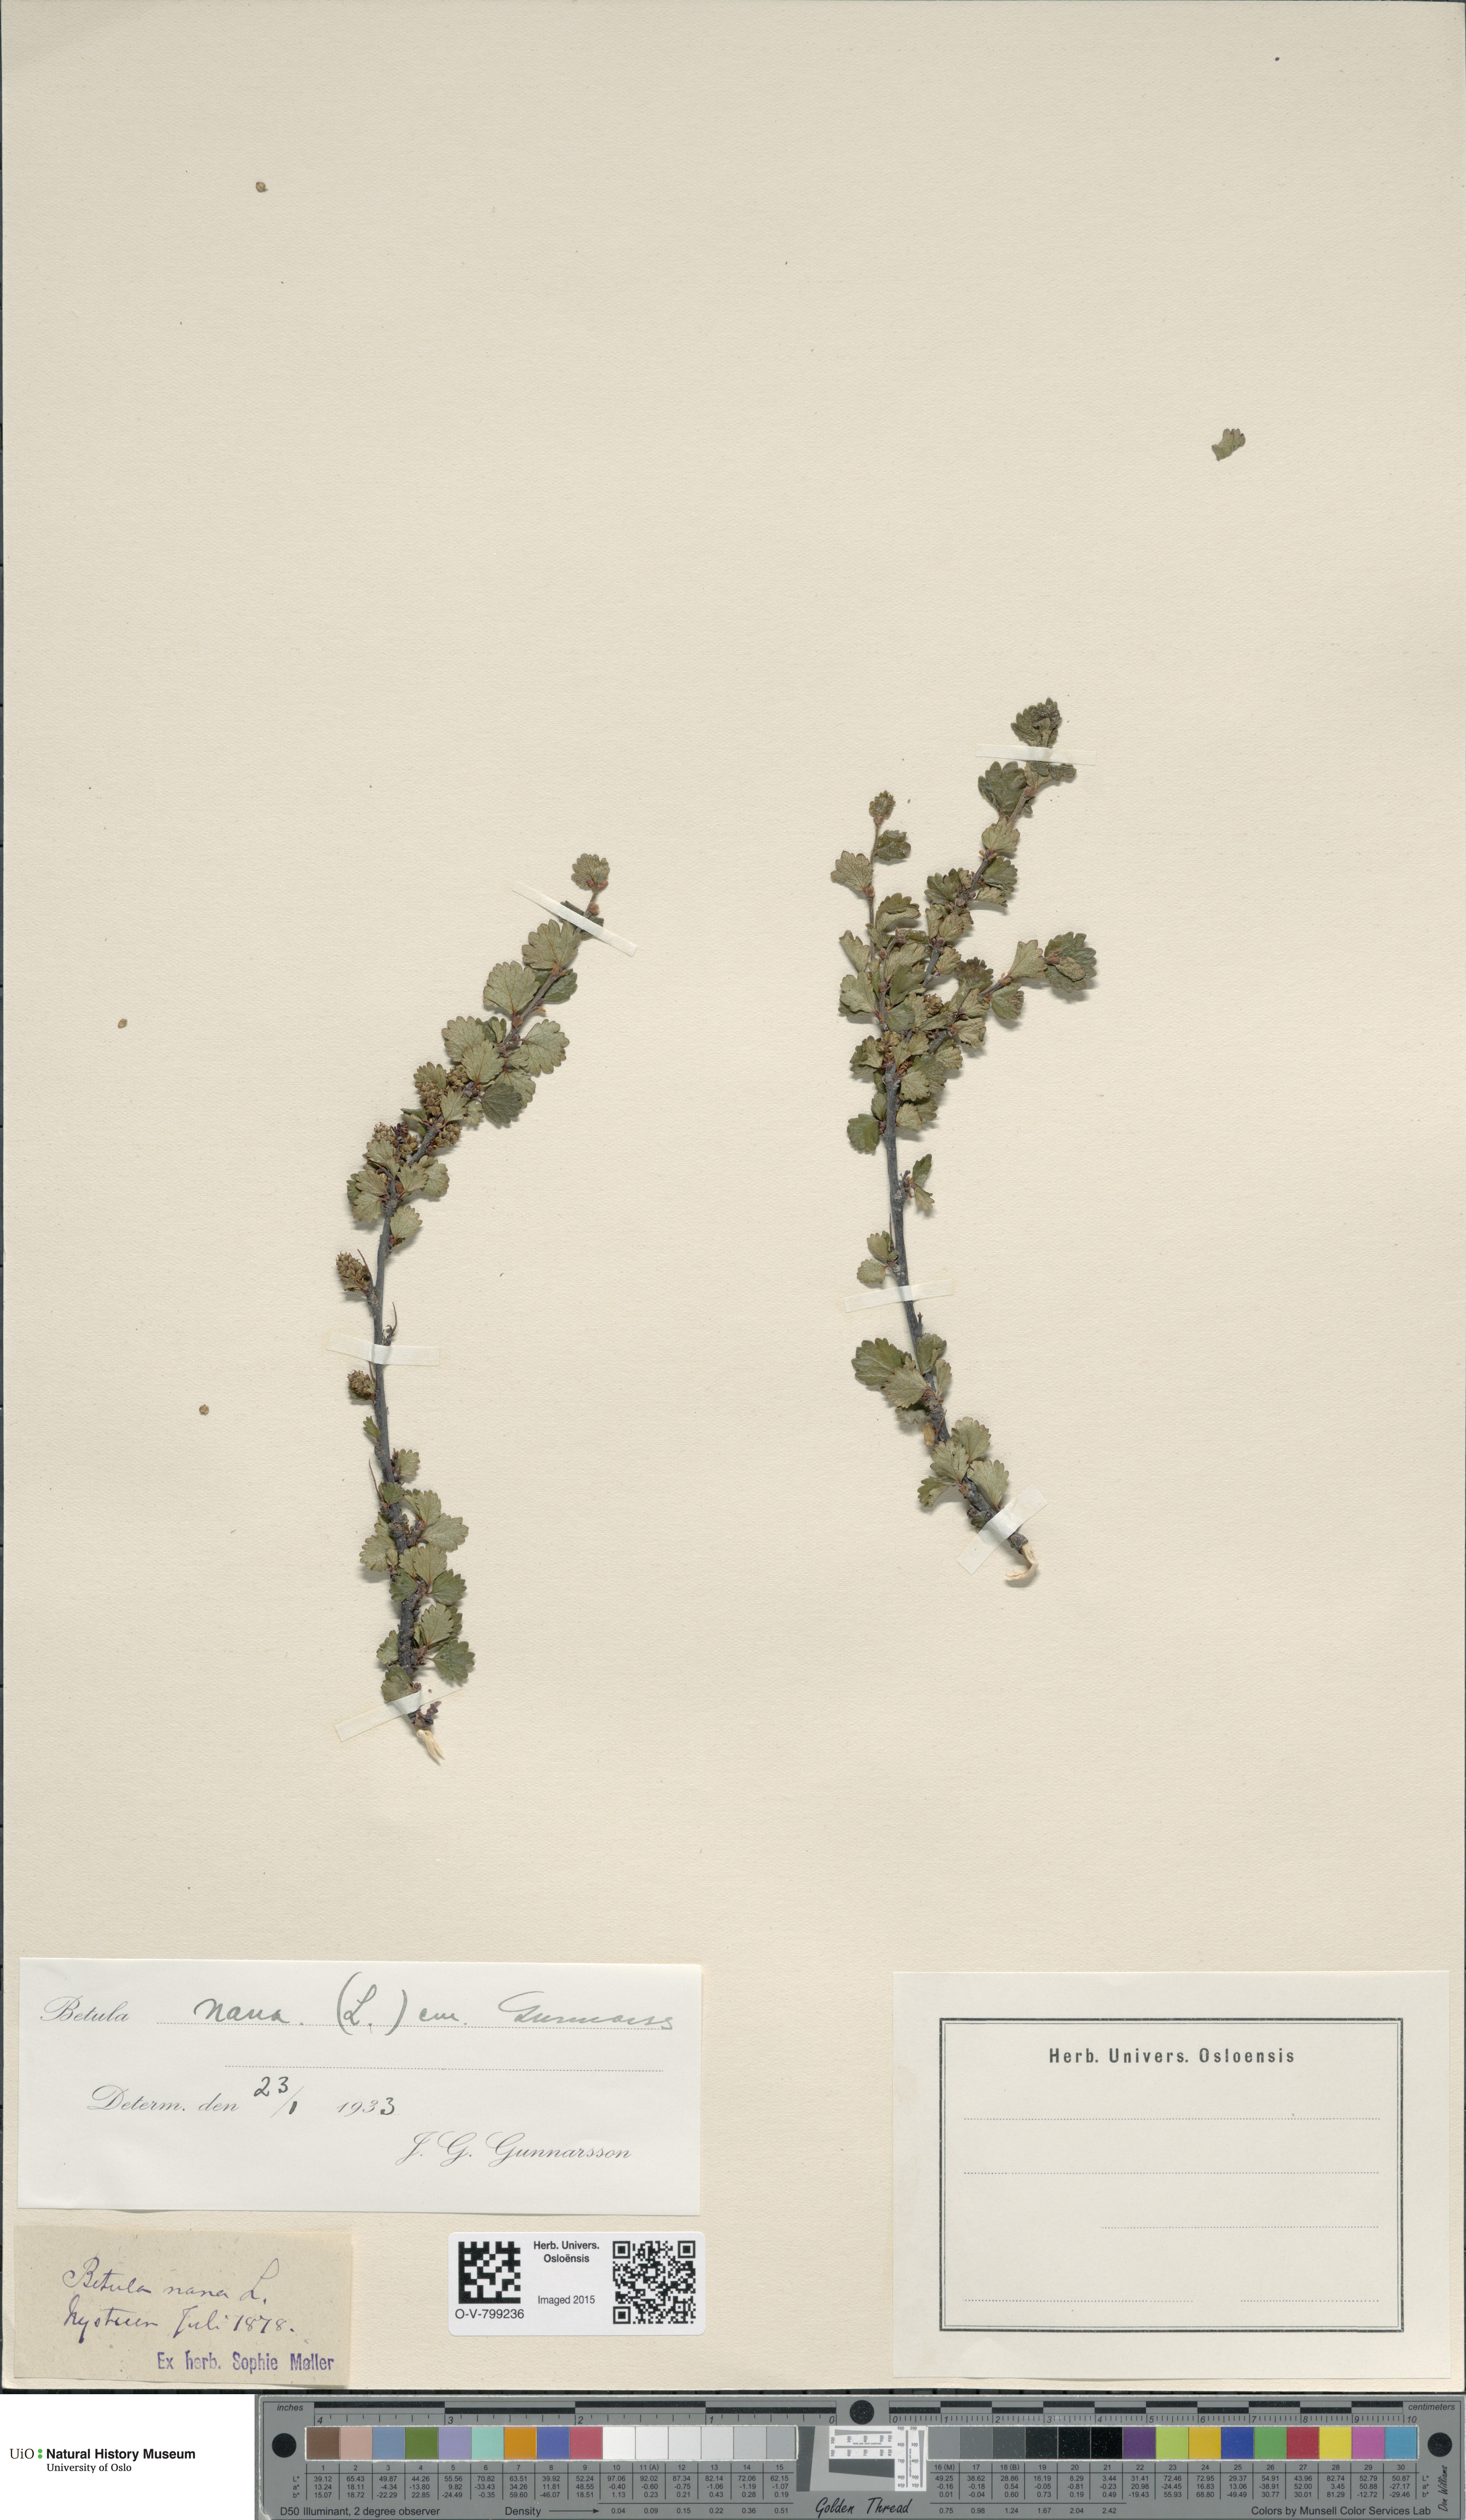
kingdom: Plantae
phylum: Tracheophyta
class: Magnoliopsida
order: Fagales
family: Betulaceae
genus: Betula
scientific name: Betula nana
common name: Arctic dwarf birch
